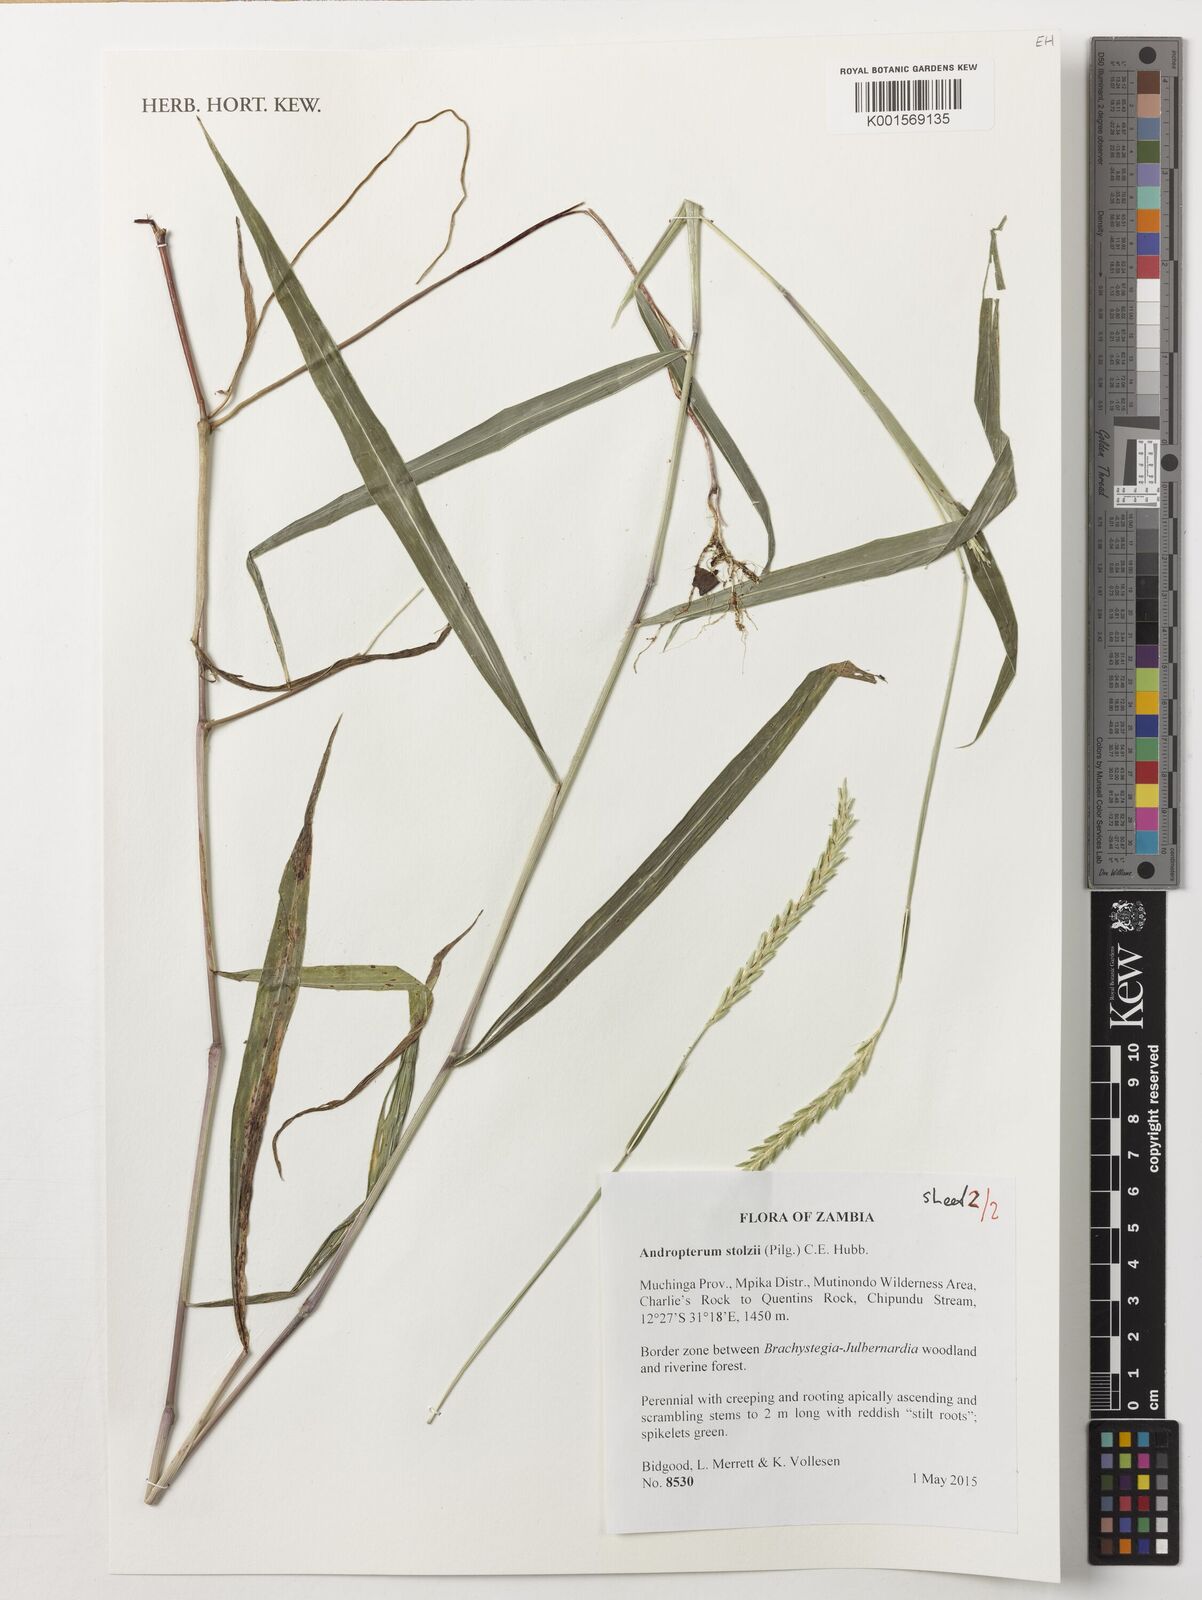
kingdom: Plantae
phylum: Tracheophyta
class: Liliopsida
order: Poales
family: Poaceae
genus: Andropterum
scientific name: Andropterum stolzii
